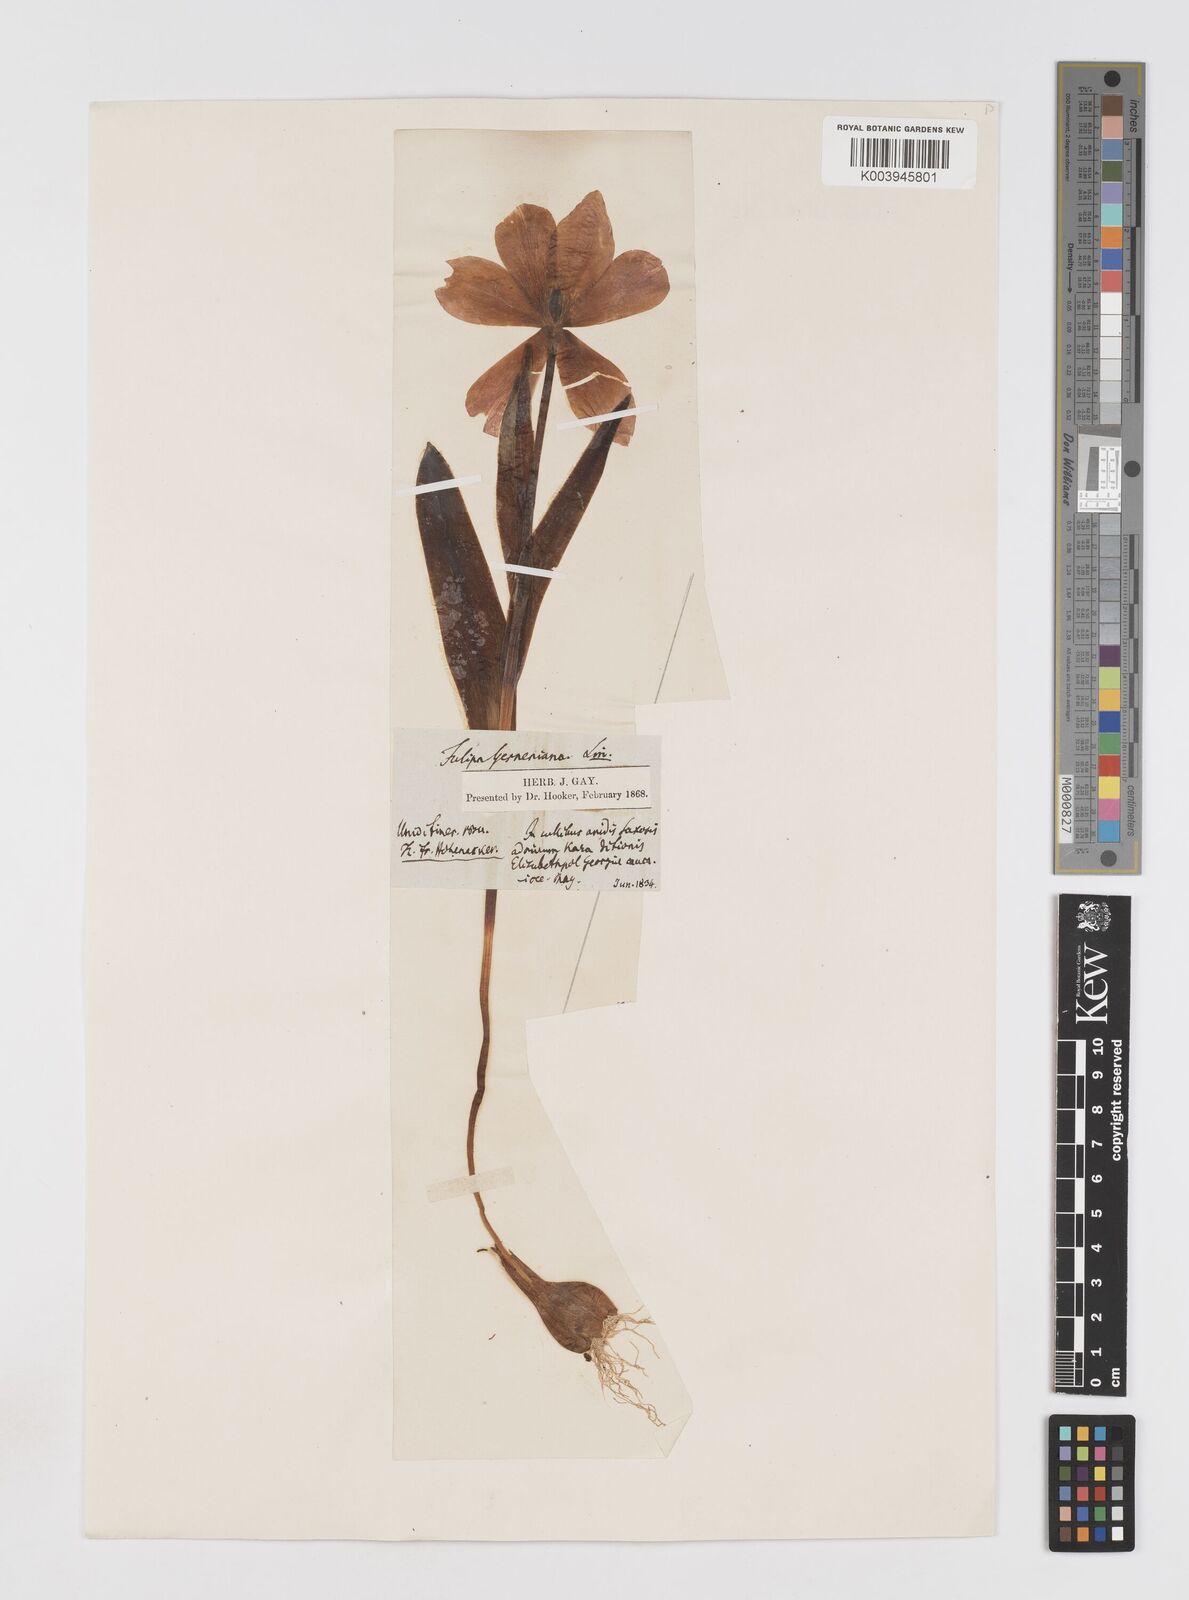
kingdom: Plantae
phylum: Tracheophyta
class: Liliopsida
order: Liliales
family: Liliaceae
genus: Tulipa
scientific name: Tulipa armena
